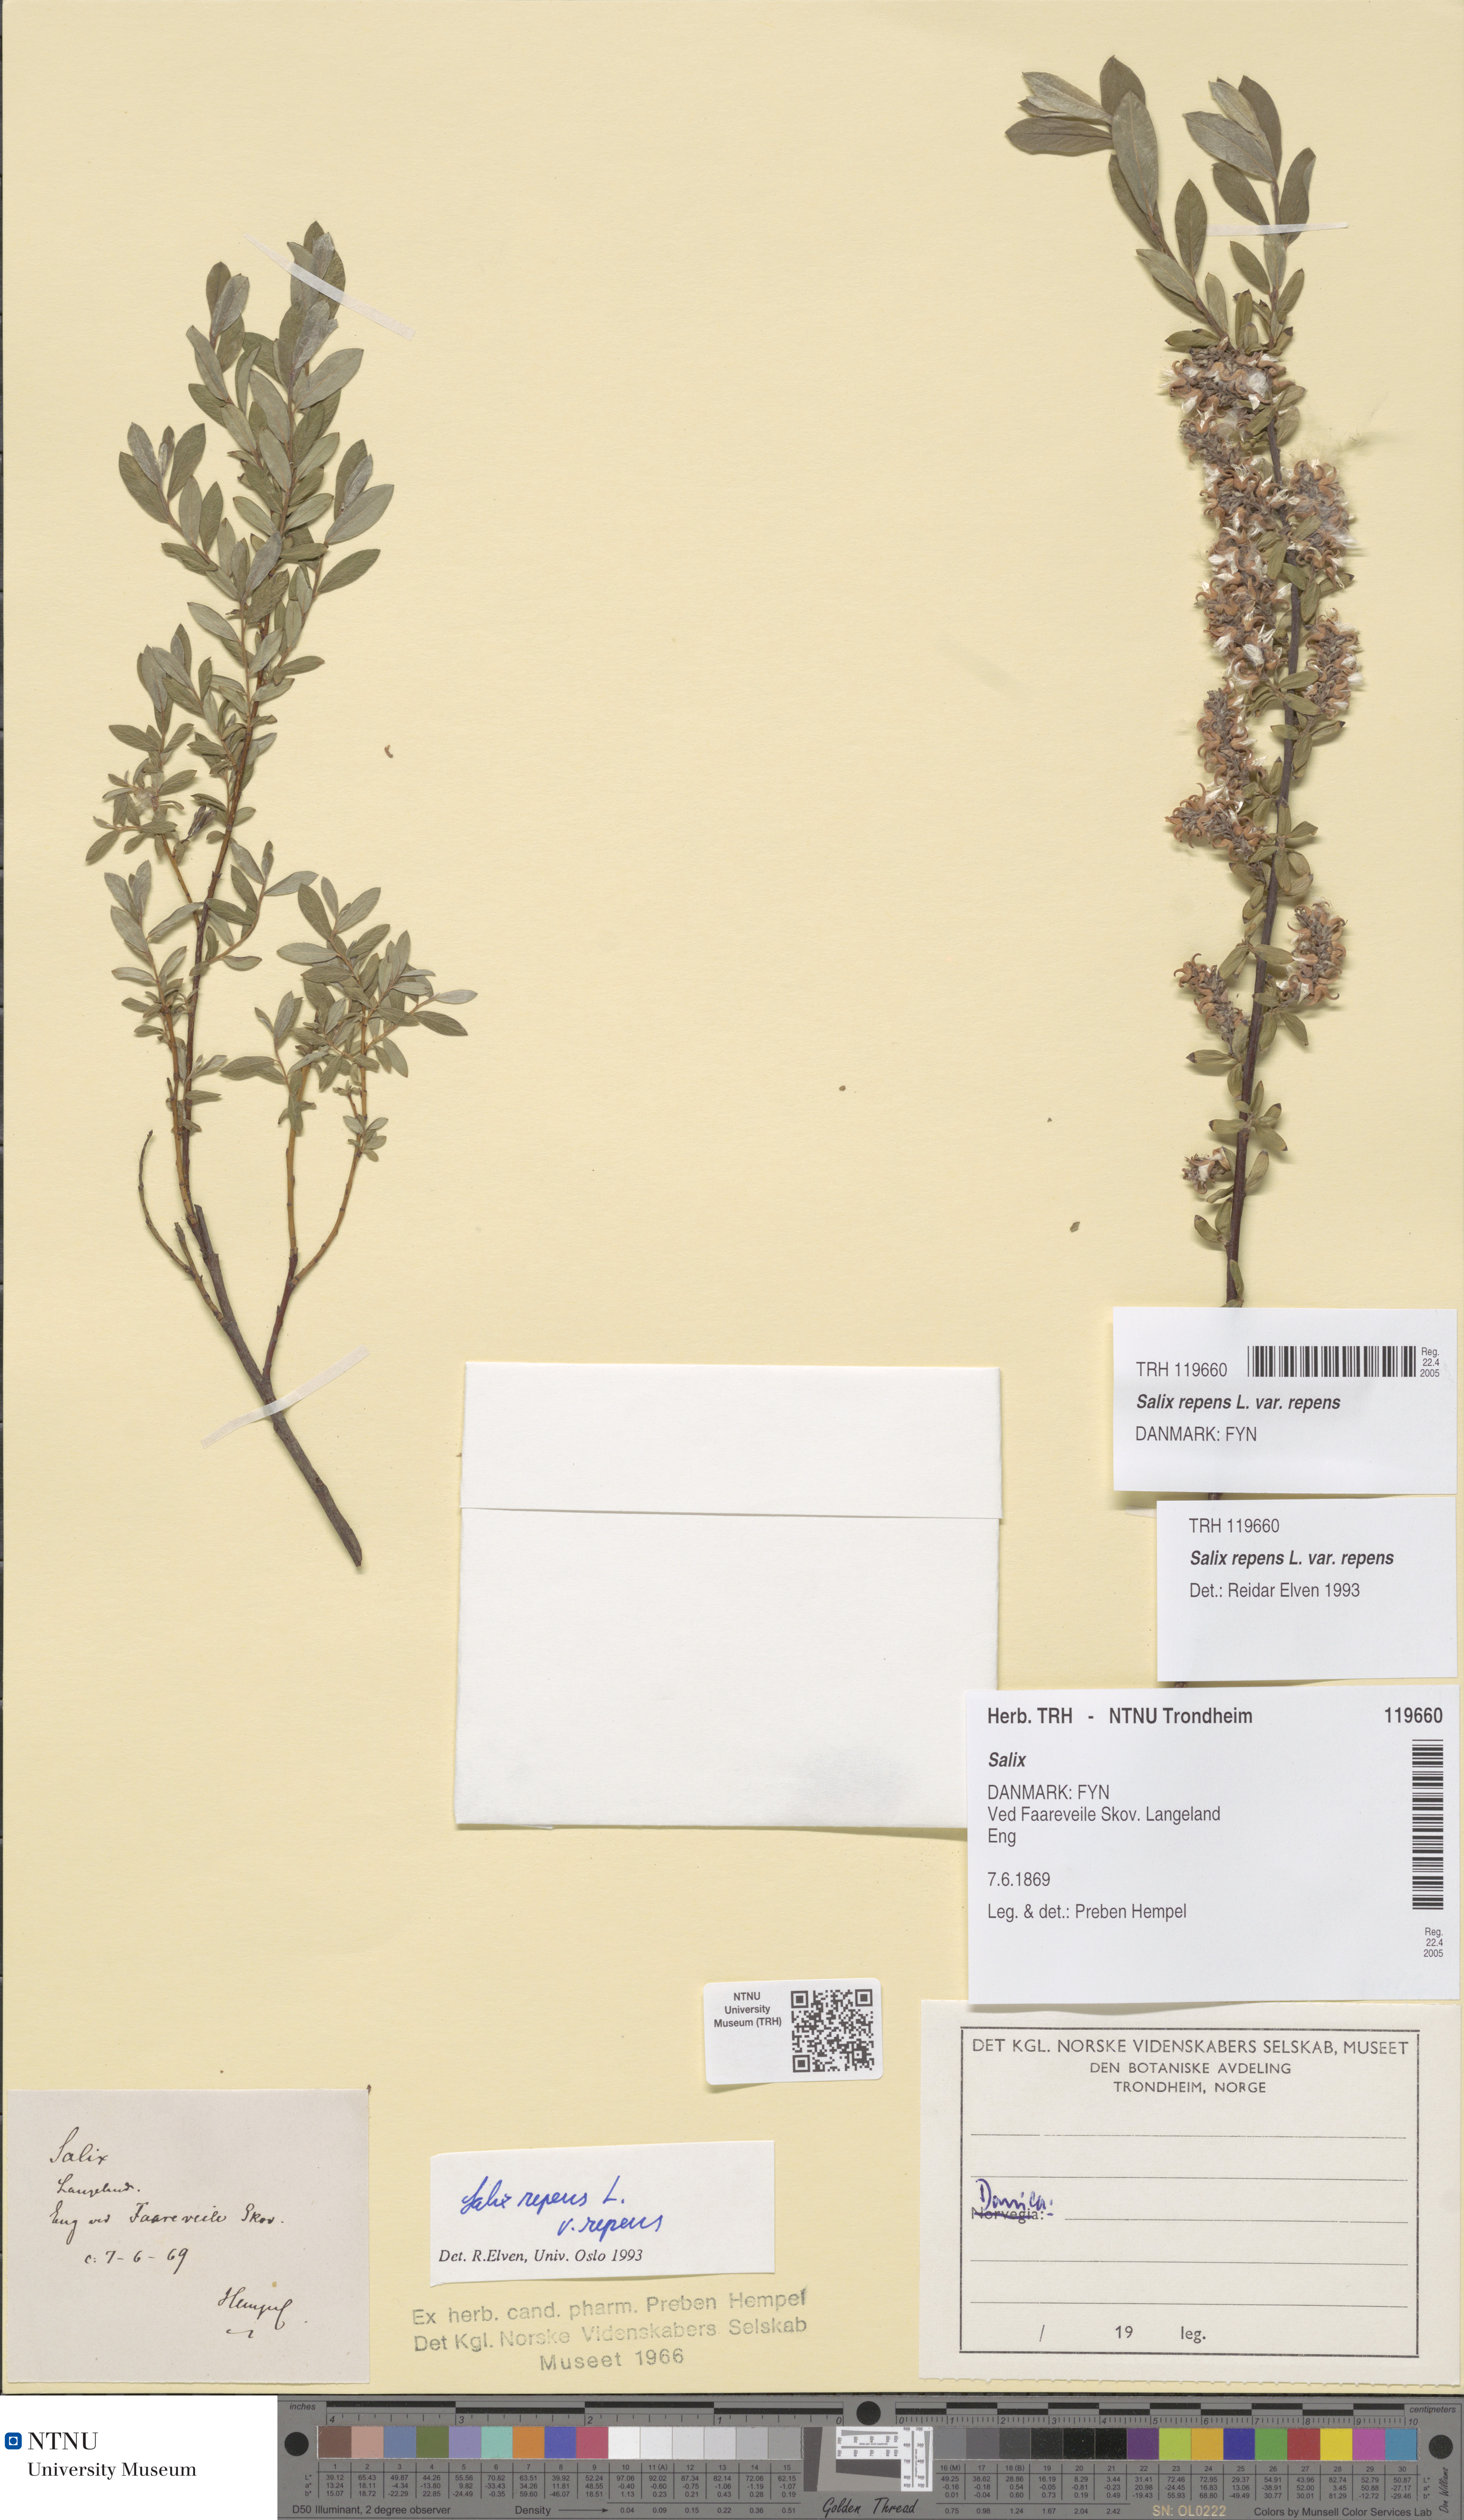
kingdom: Plantae
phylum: Tracheophyta
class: Magnoliopsida
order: Malpighiales
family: Salicaceae
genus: Salix
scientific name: Salix repens
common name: Creeping willow
